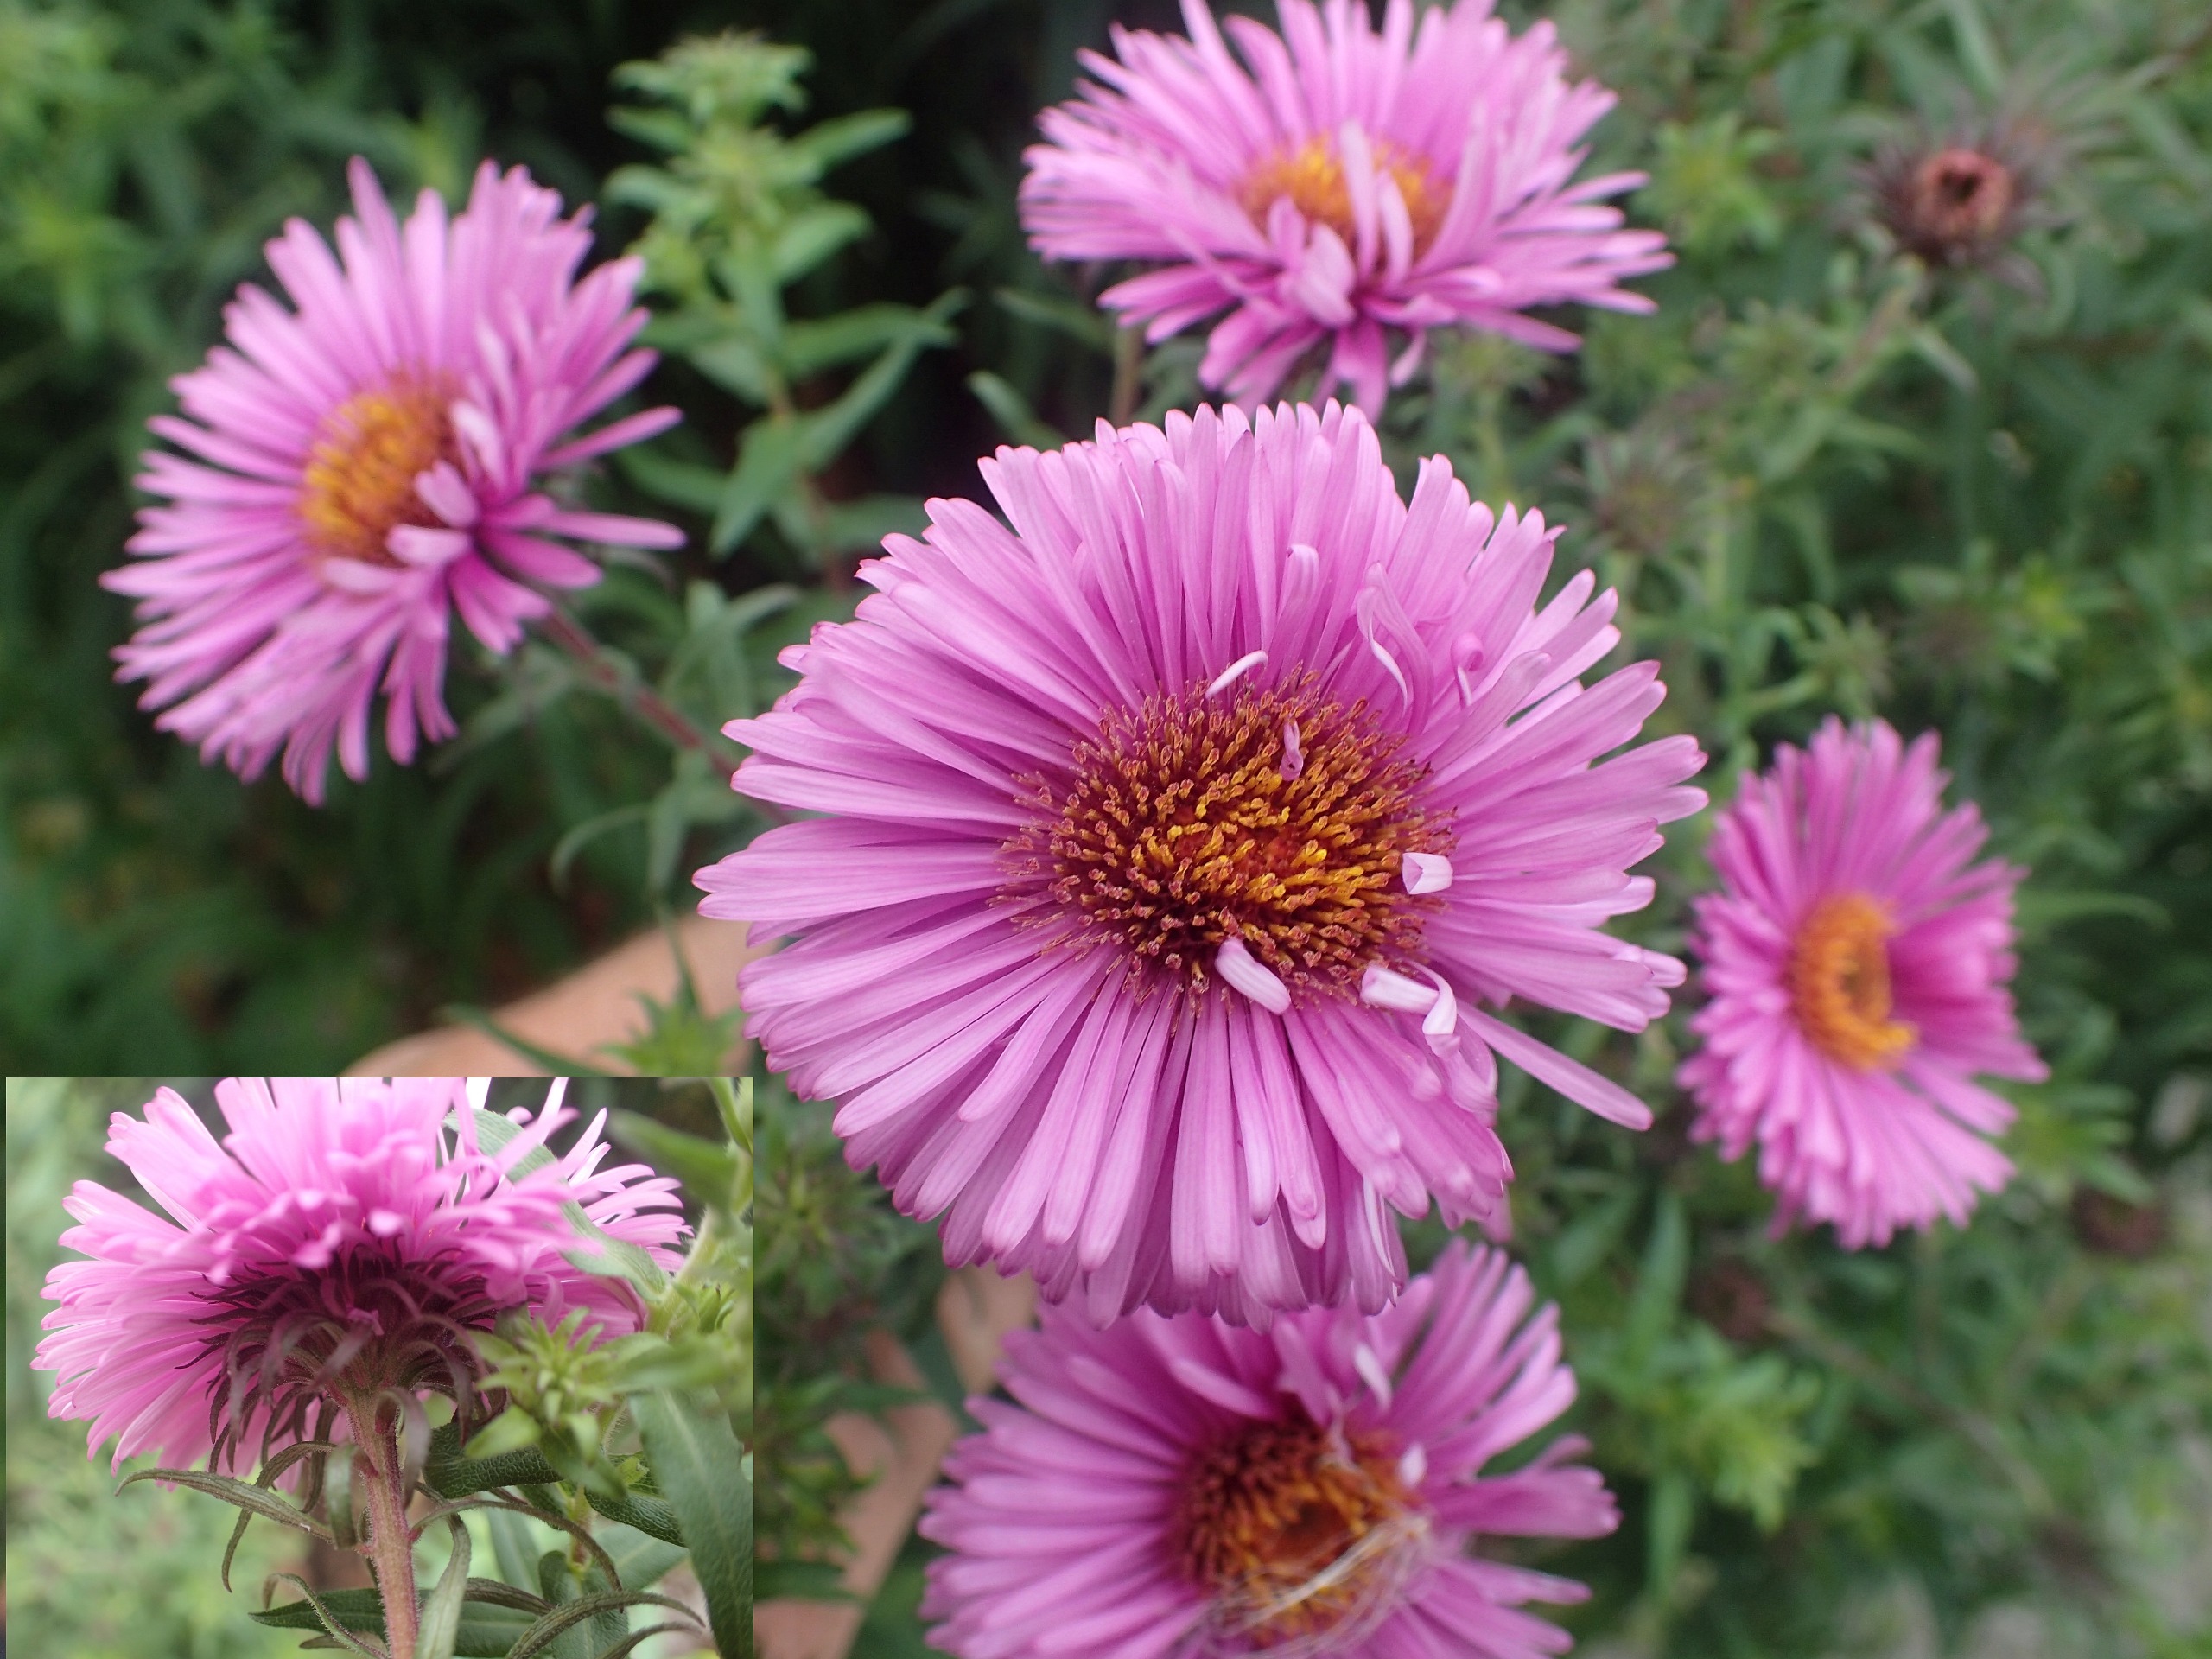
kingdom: Plantae
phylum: Tracheophyta
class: Magnoliopsida
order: Asterales
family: Asteraceae
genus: Symphyotrichum
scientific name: Symphyotrichum novae-angliae
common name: Nyengelsk asters
